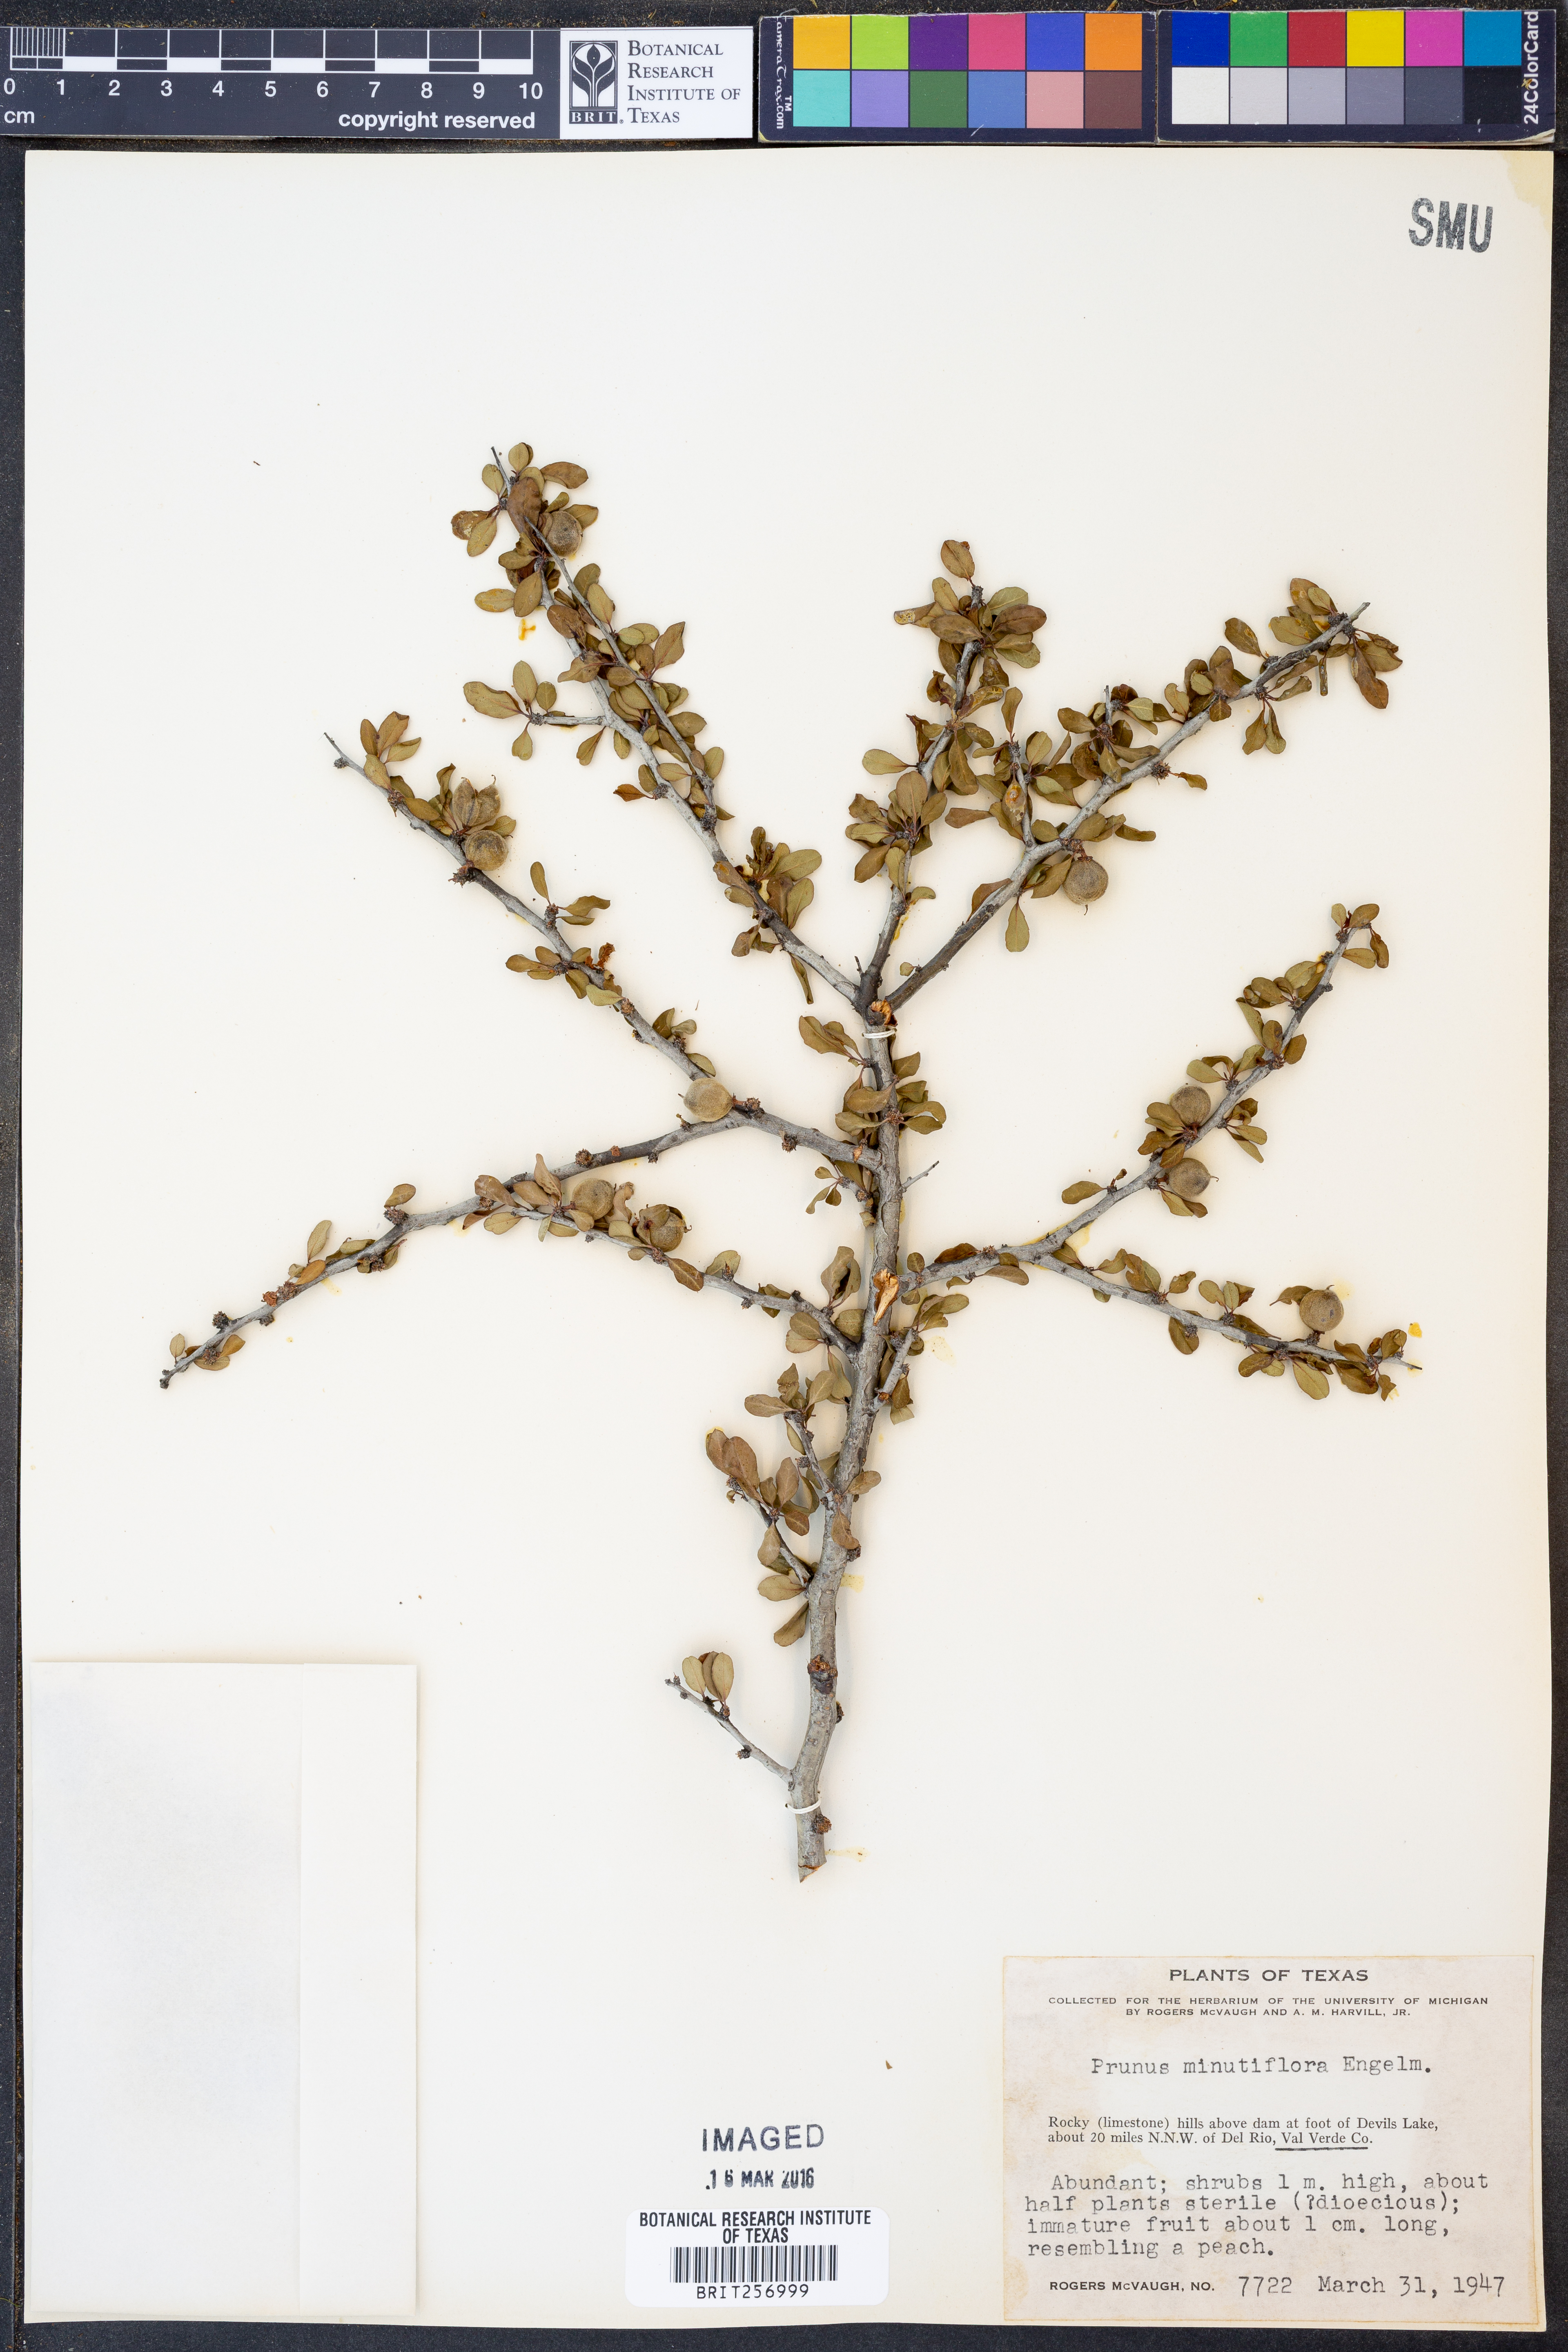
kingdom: Plantae
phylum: Tracheophyta
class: Magnoliopsida
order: Rosales
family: Rosaceae
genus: Prunus
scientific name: Prunus minutiflora
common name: Texas almond
